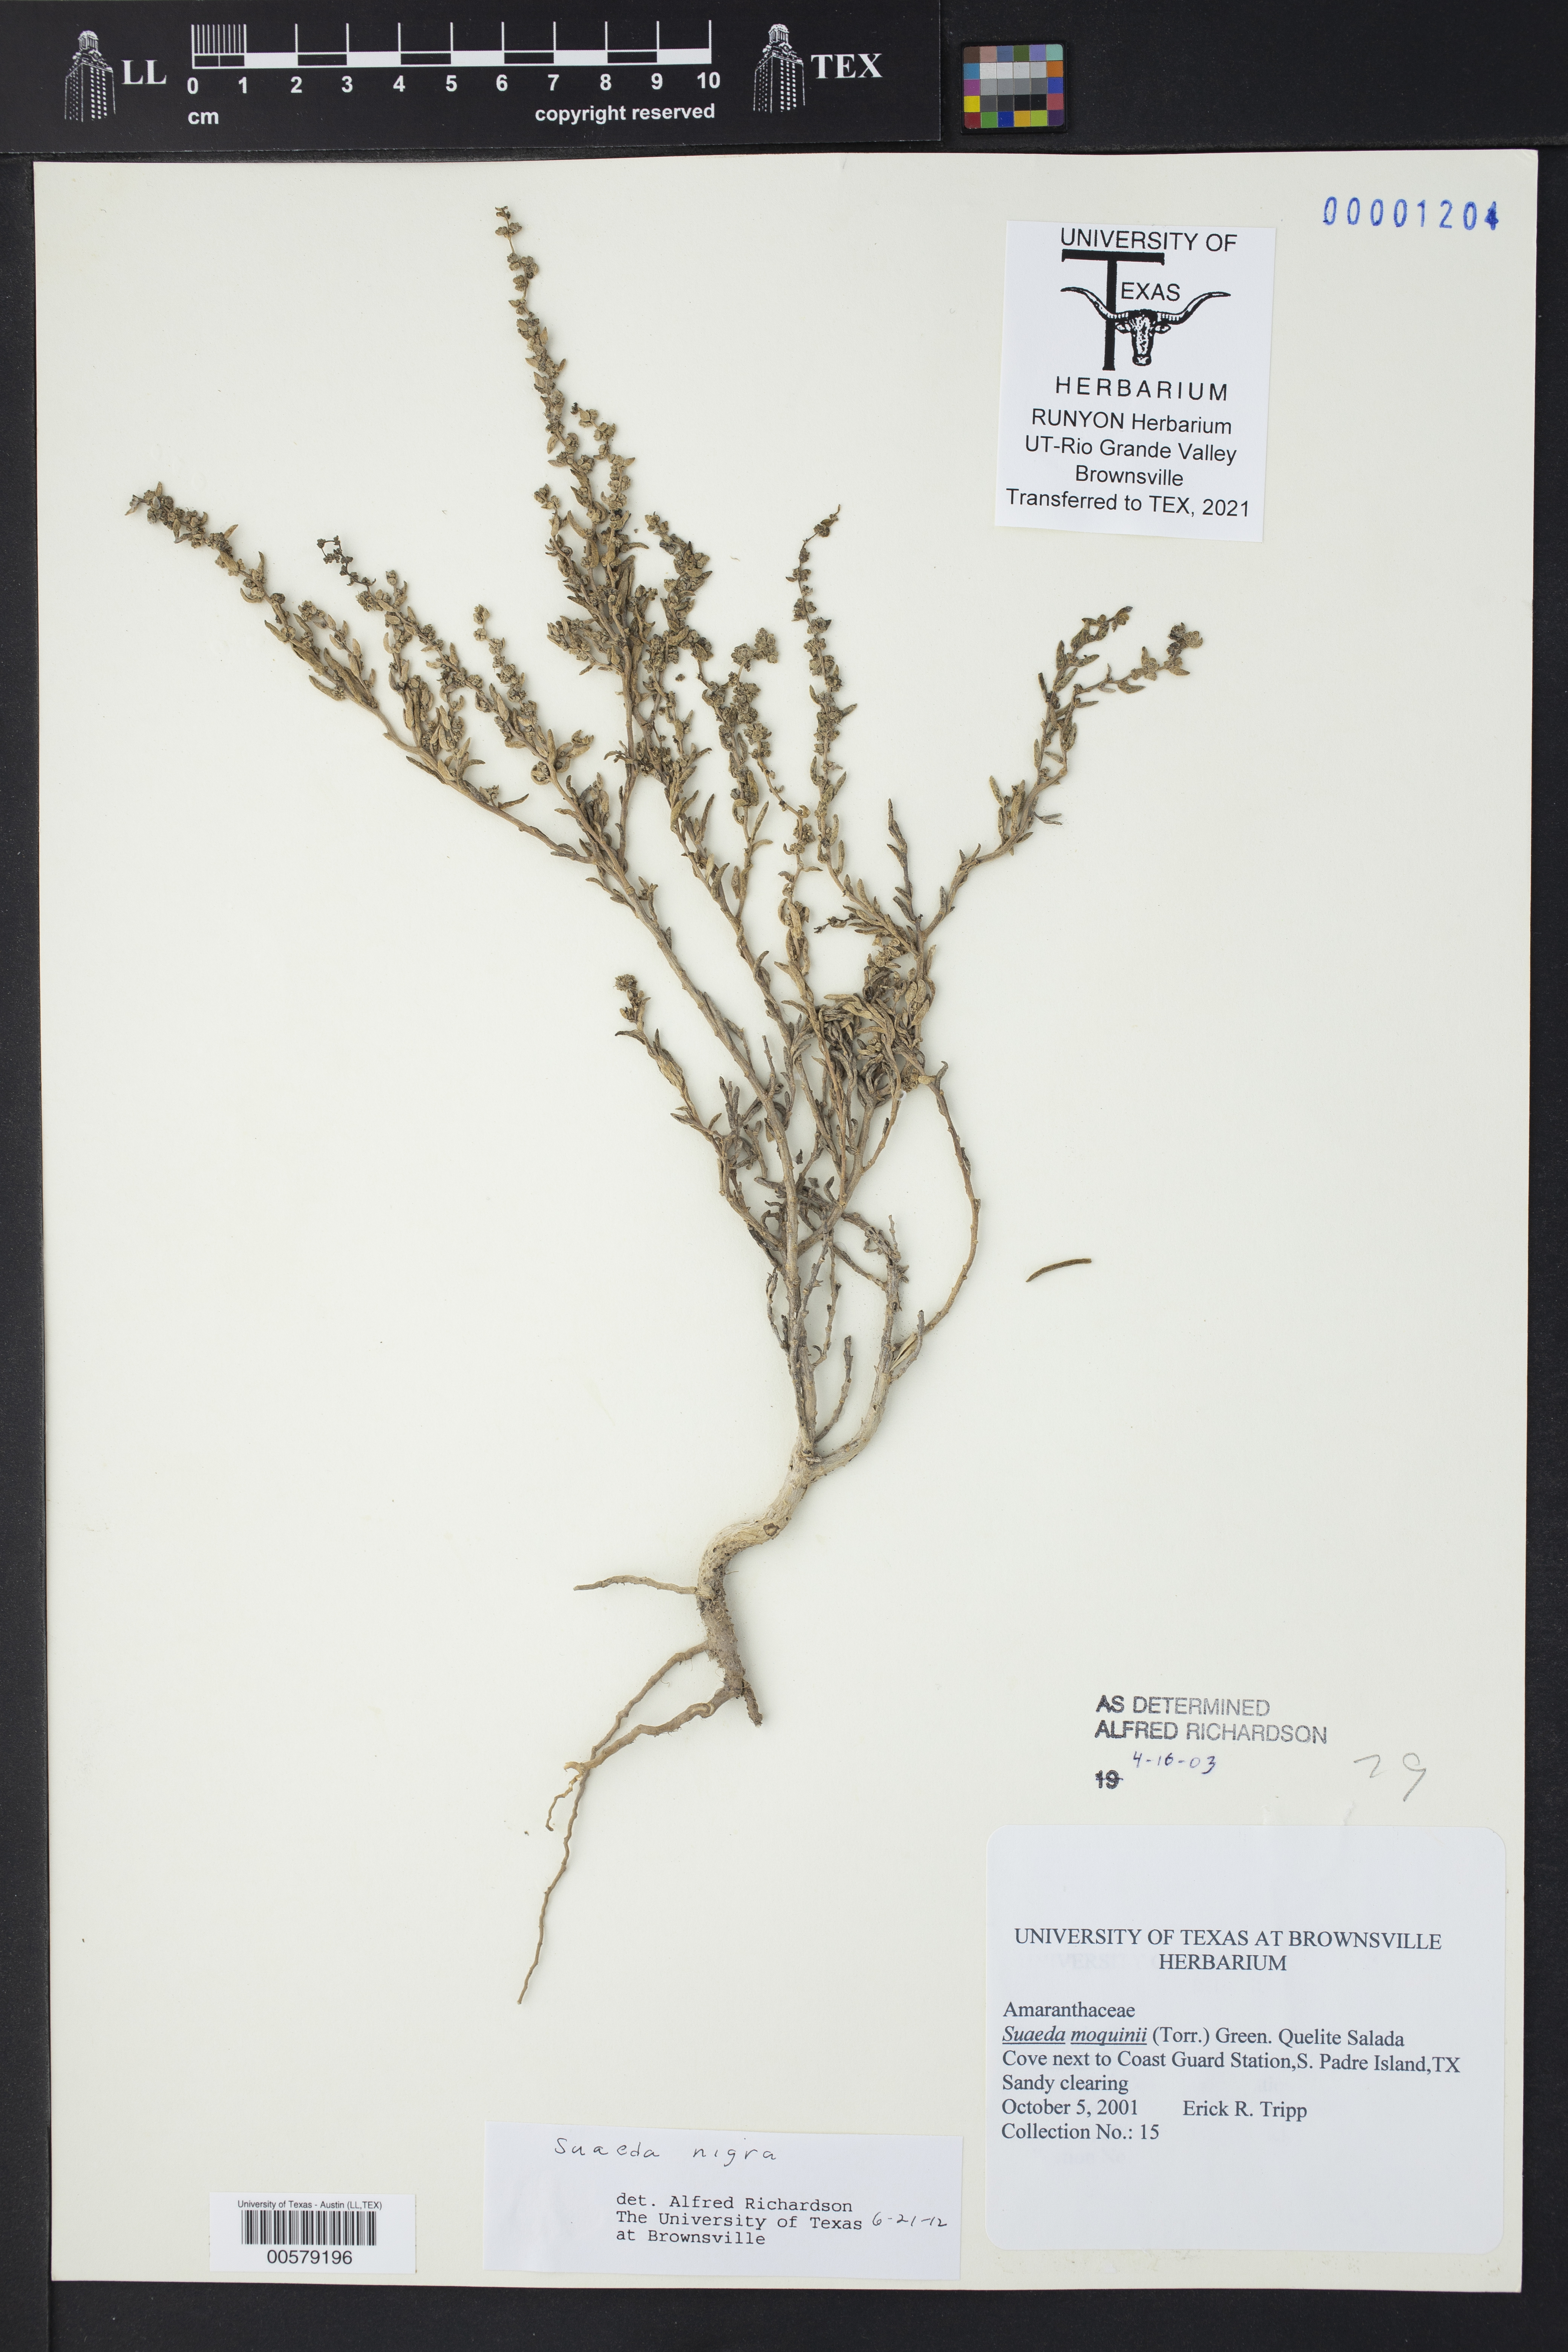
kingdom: Plantae
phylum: Tracheophyta
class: Magnoliopsida
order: Caryophyllales
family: Amaranthaceae
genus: Suaeda
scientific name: Suaeda nigra
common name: Bush seepweed
